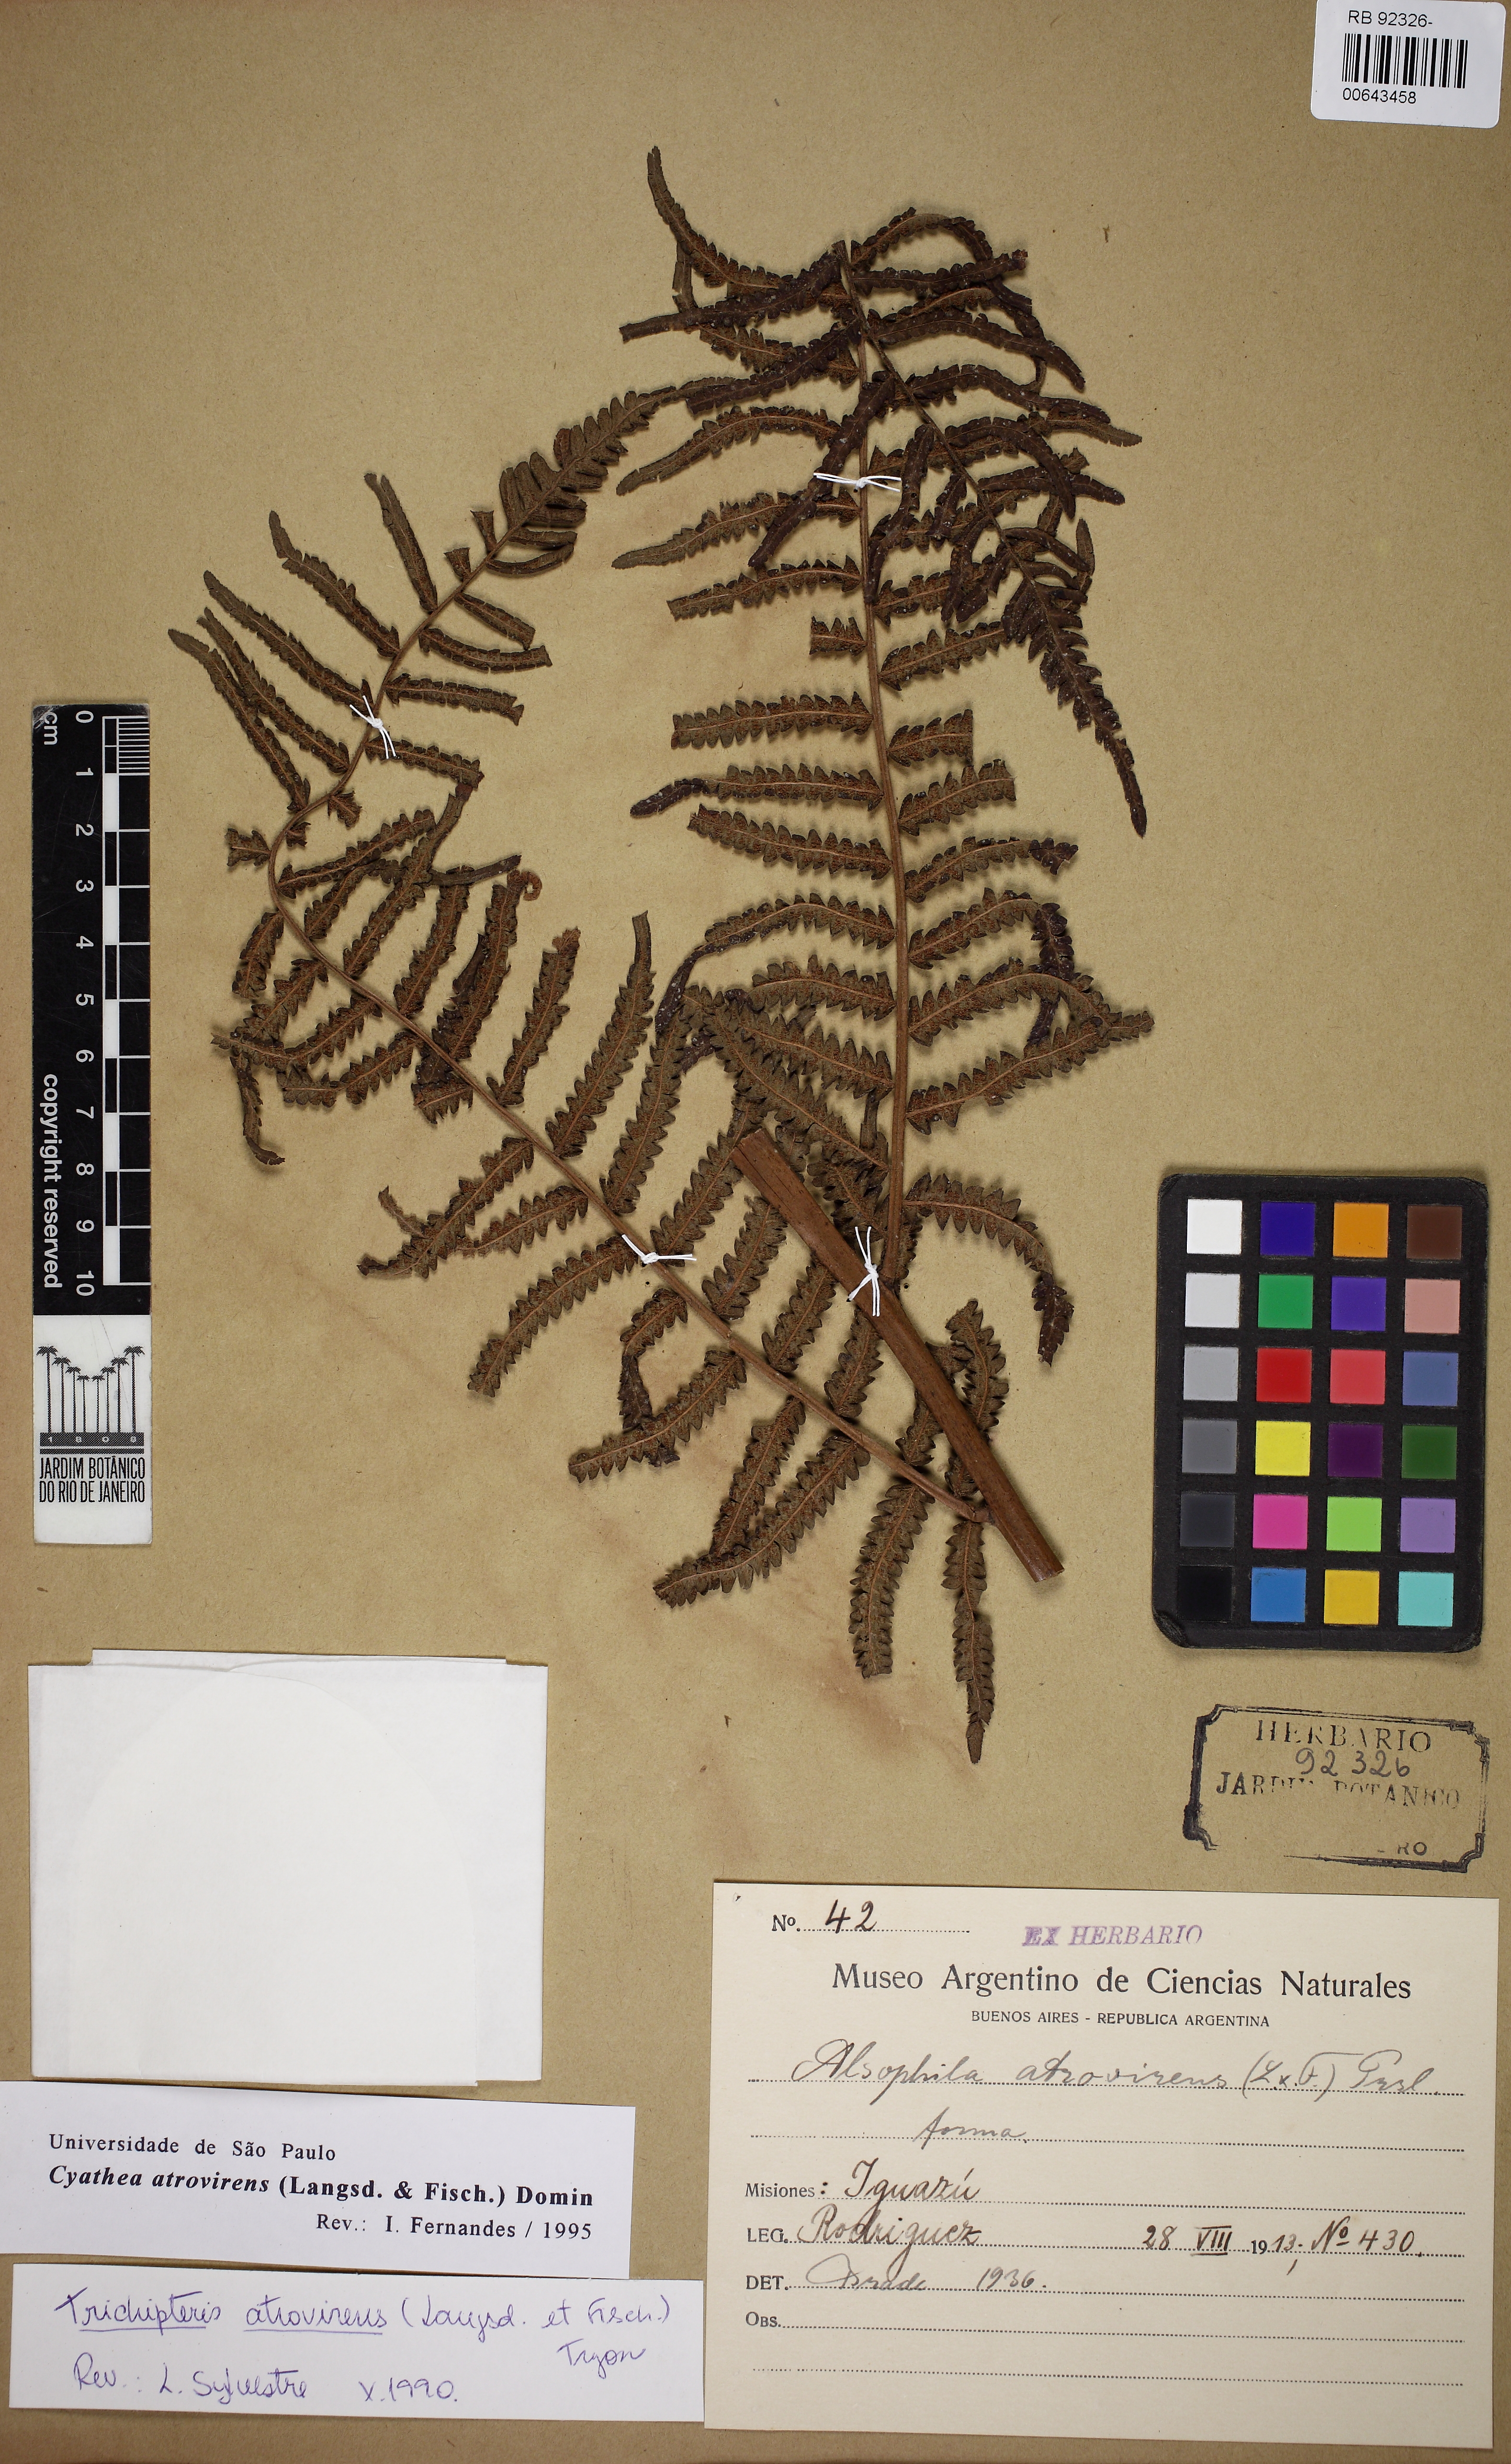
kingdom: Plantae
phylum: Tracheophyta
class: Polypodiopsida
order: Cyatheales
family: Cyatheaceae
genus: Cyathea
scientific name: Cyathea atrovirens
